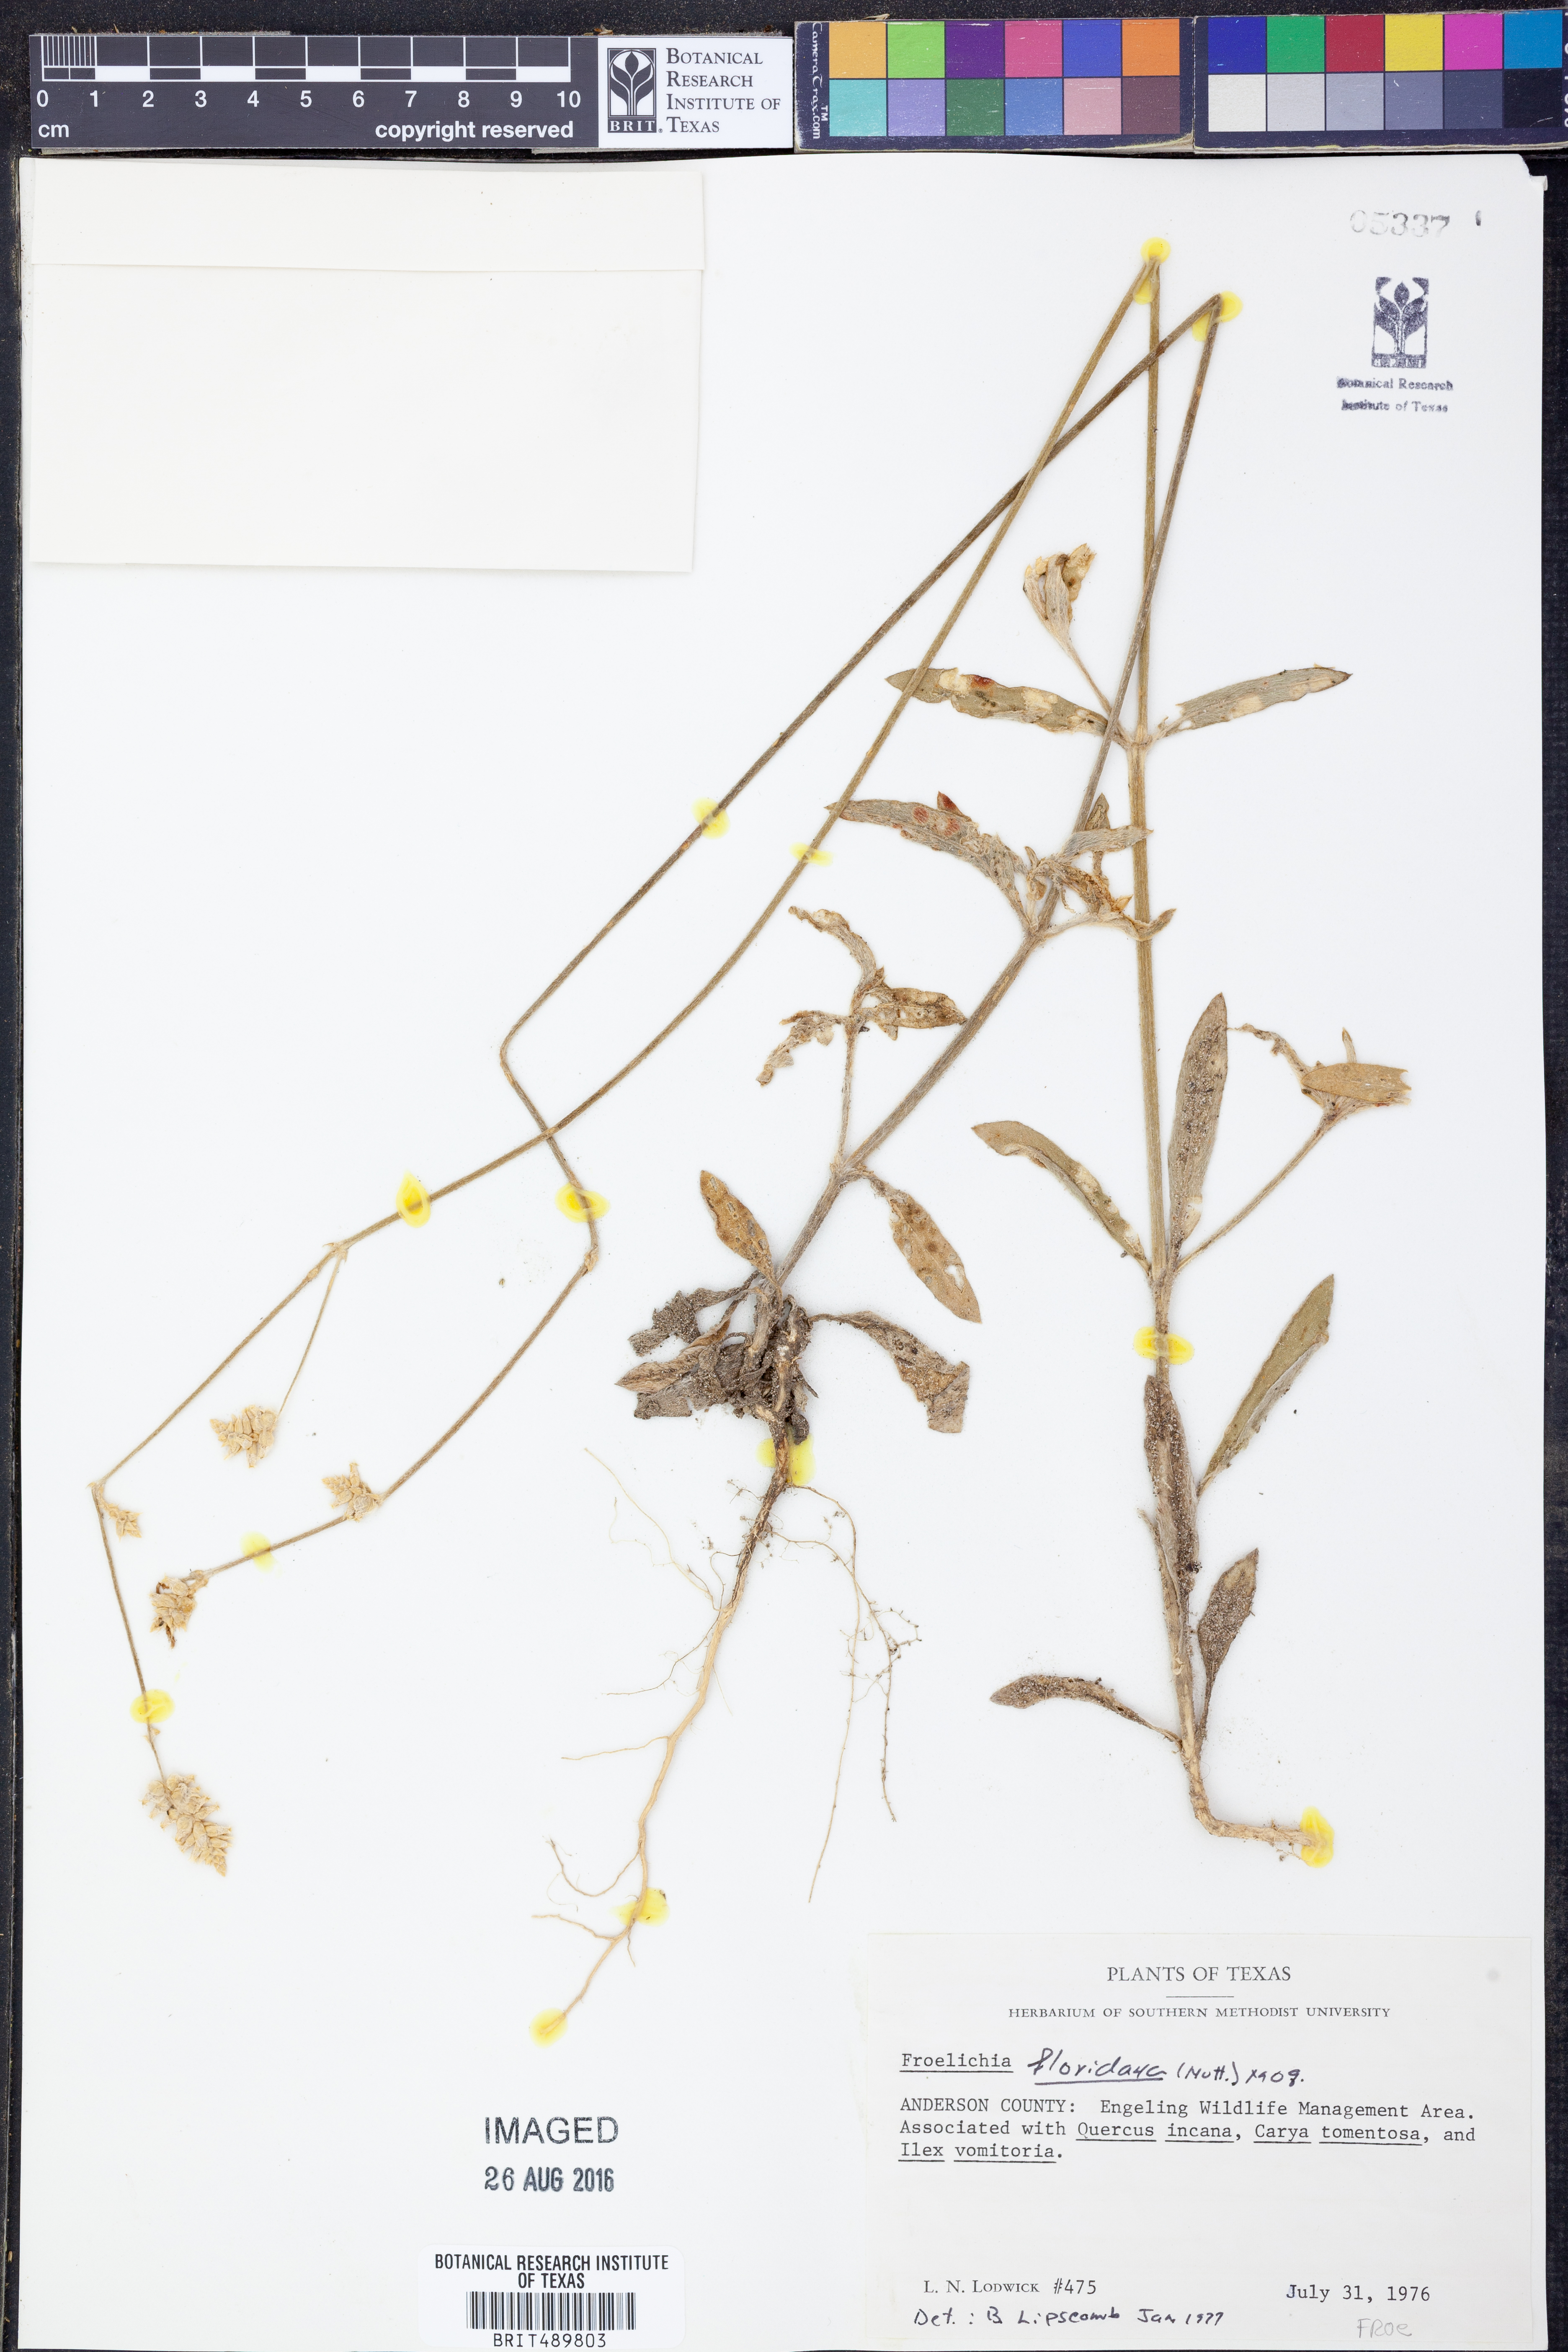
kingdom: Plantae
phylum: Tracheophyta
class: Magnoliopsida
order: Caryophyllales
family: Amaranthaceae
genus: Froelichia
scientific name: Froelichia floridana
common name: Florida snake-cotton
